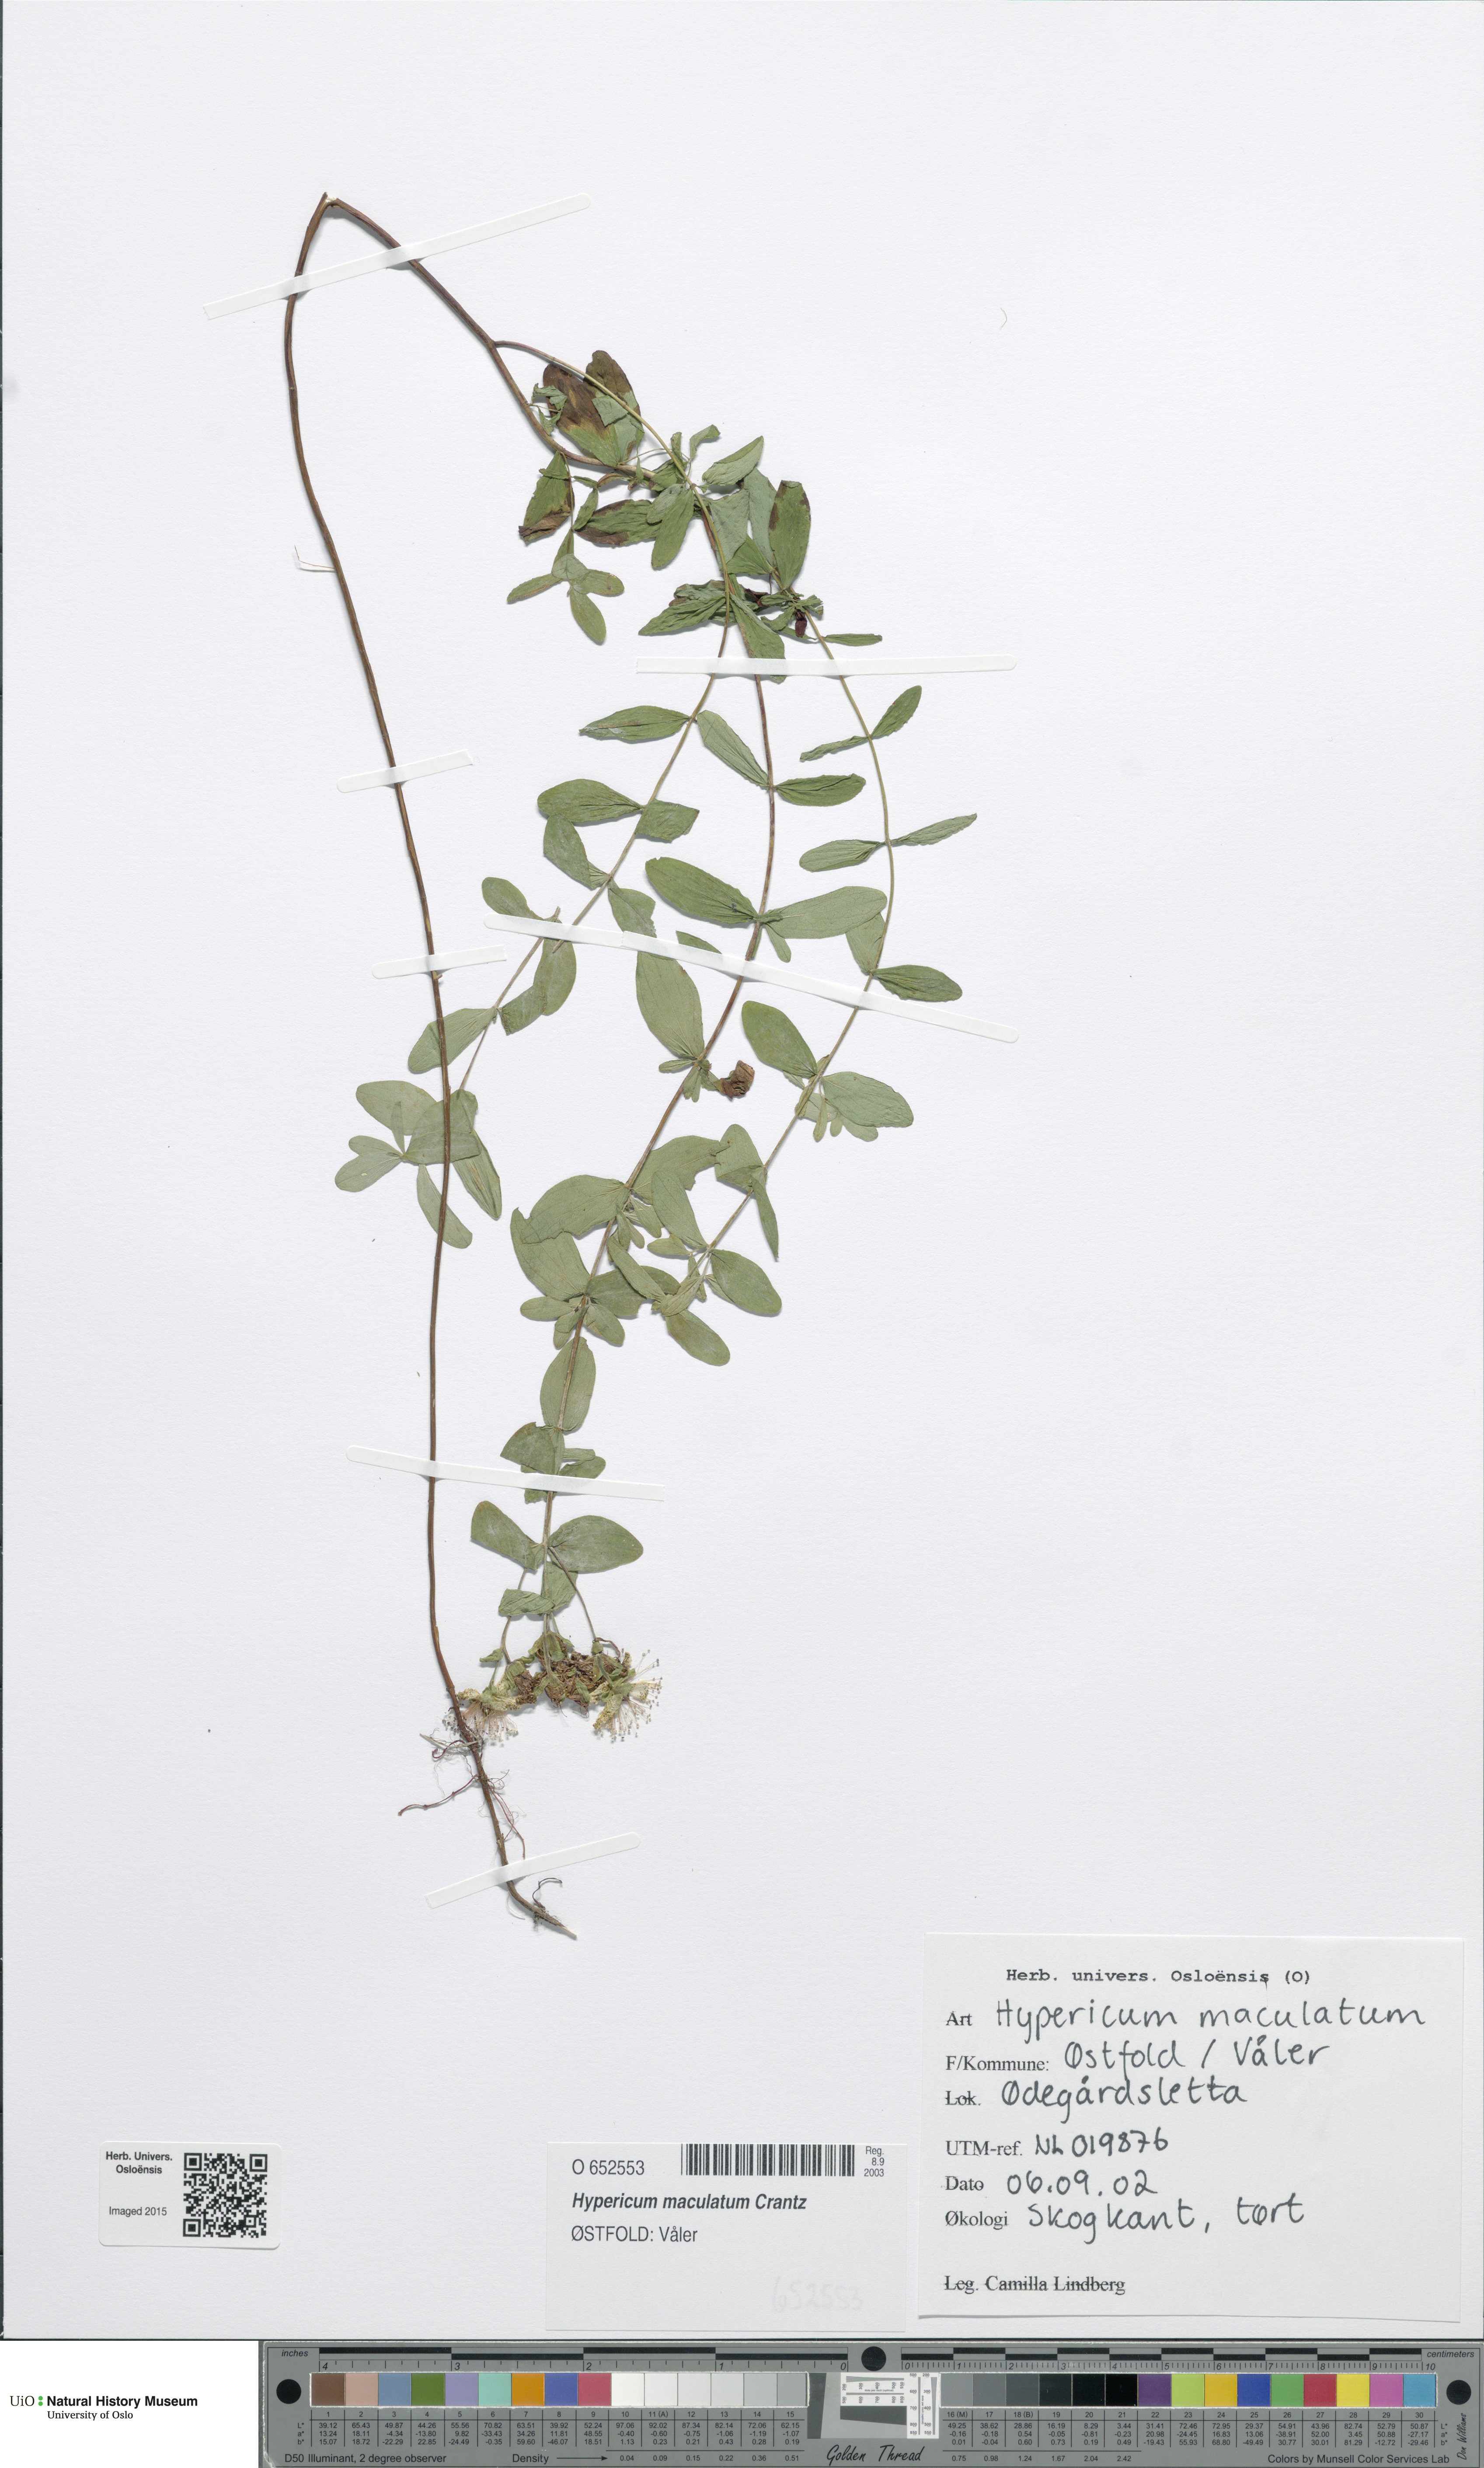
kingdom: Plantae
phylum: Tracheophyta
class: Magnoliopsida
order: Malpighiales
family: Hypericaceae
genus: Hypericum
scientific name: Hypericum maculatum
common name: Imperforate st. john's-wort
